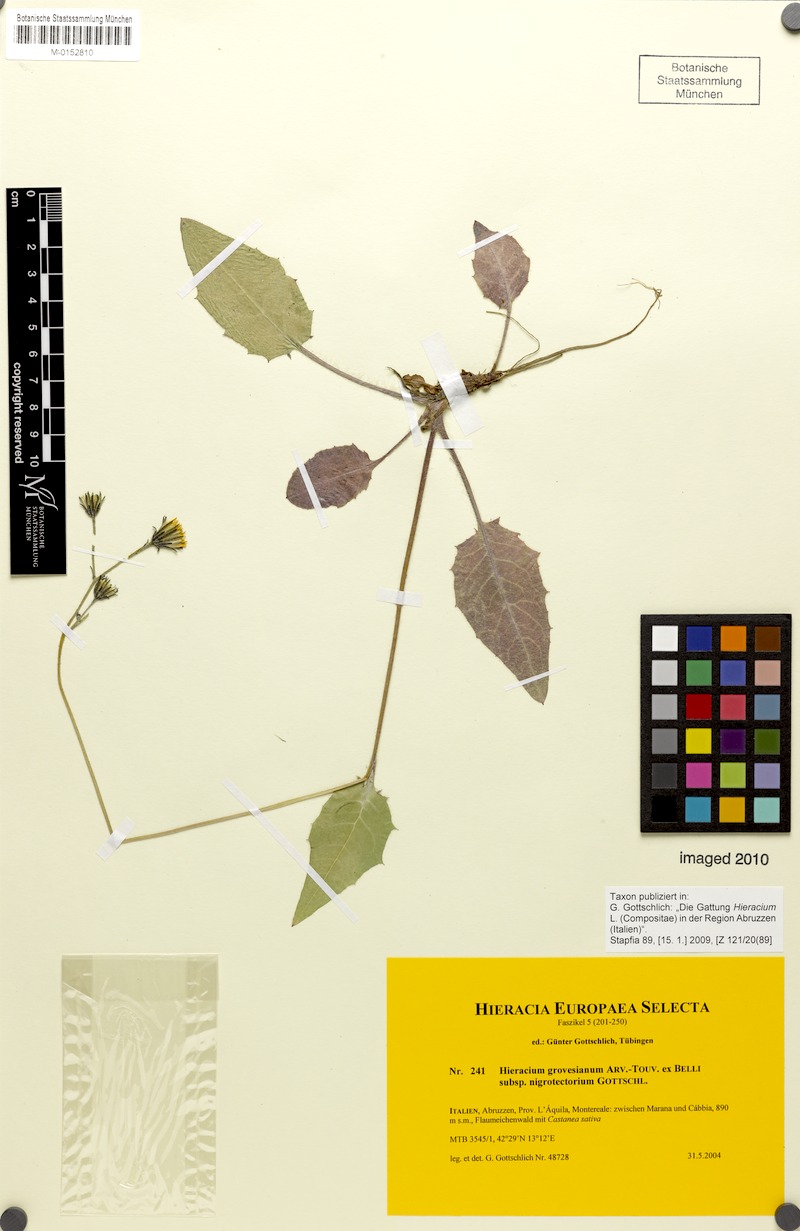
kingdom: Plantae
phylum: Tracheophyta
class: Magnoliopsida
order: Asterales
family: Asteraceae
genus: Hieracium
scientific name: Hieracium grovesianum
